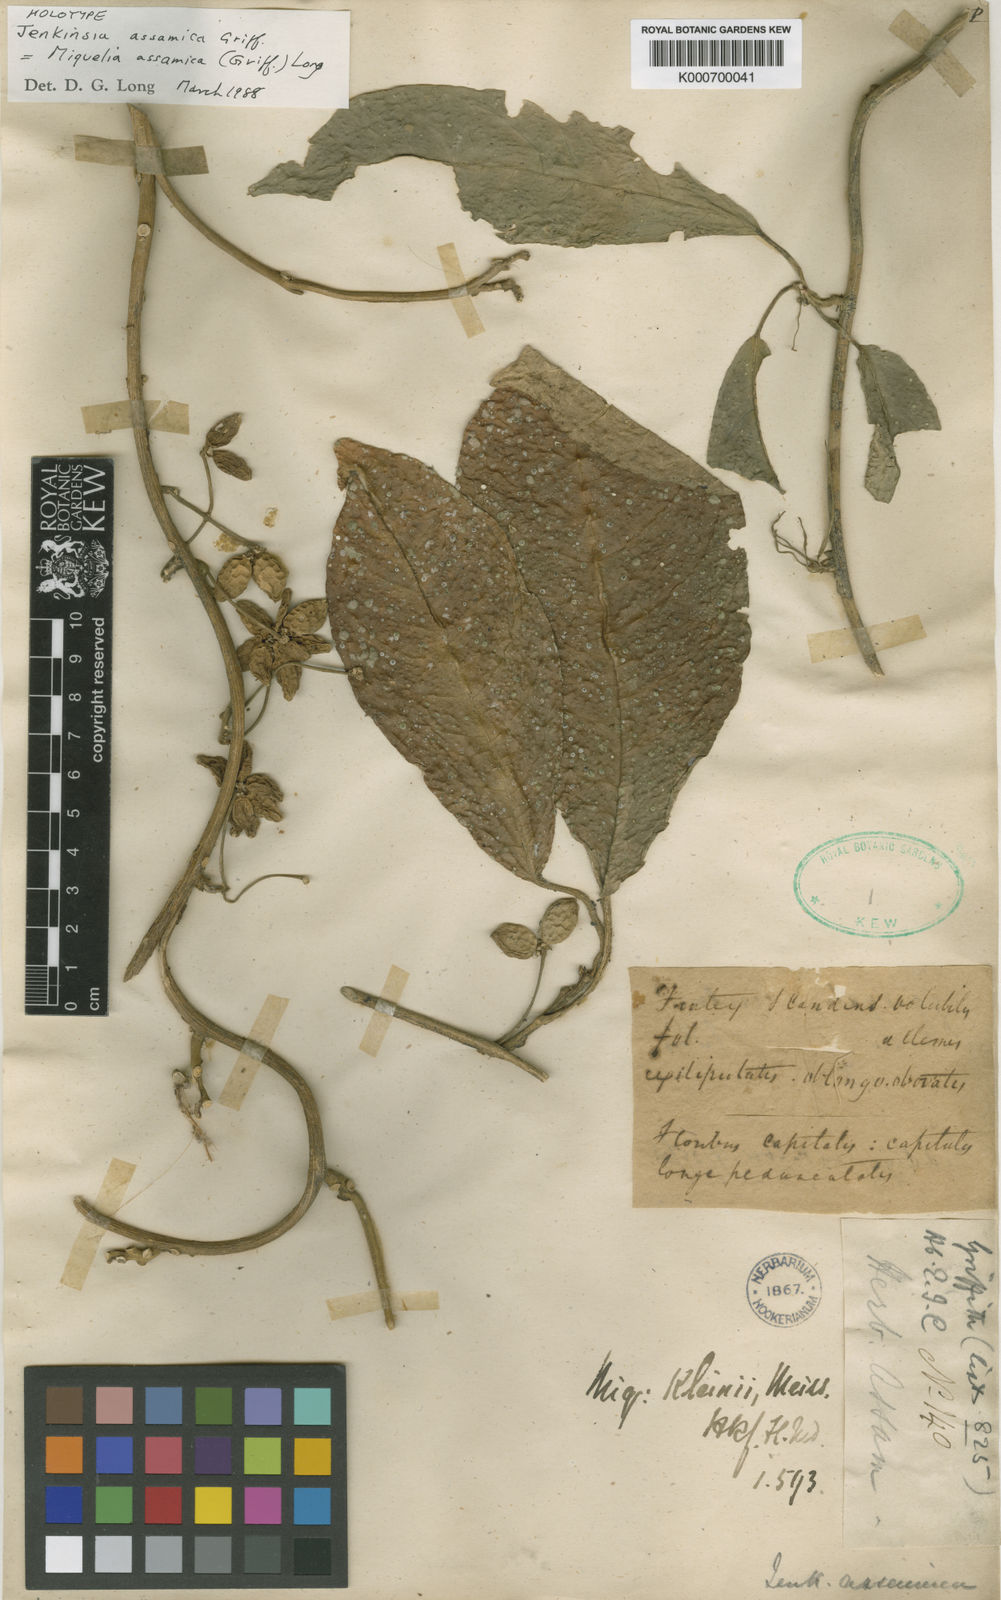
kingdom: Plantae
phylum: Tracheophyta
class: Magnoliopsida
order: Icacinales
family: Icacinaceae
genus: Miquelia
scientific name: Miquelia
